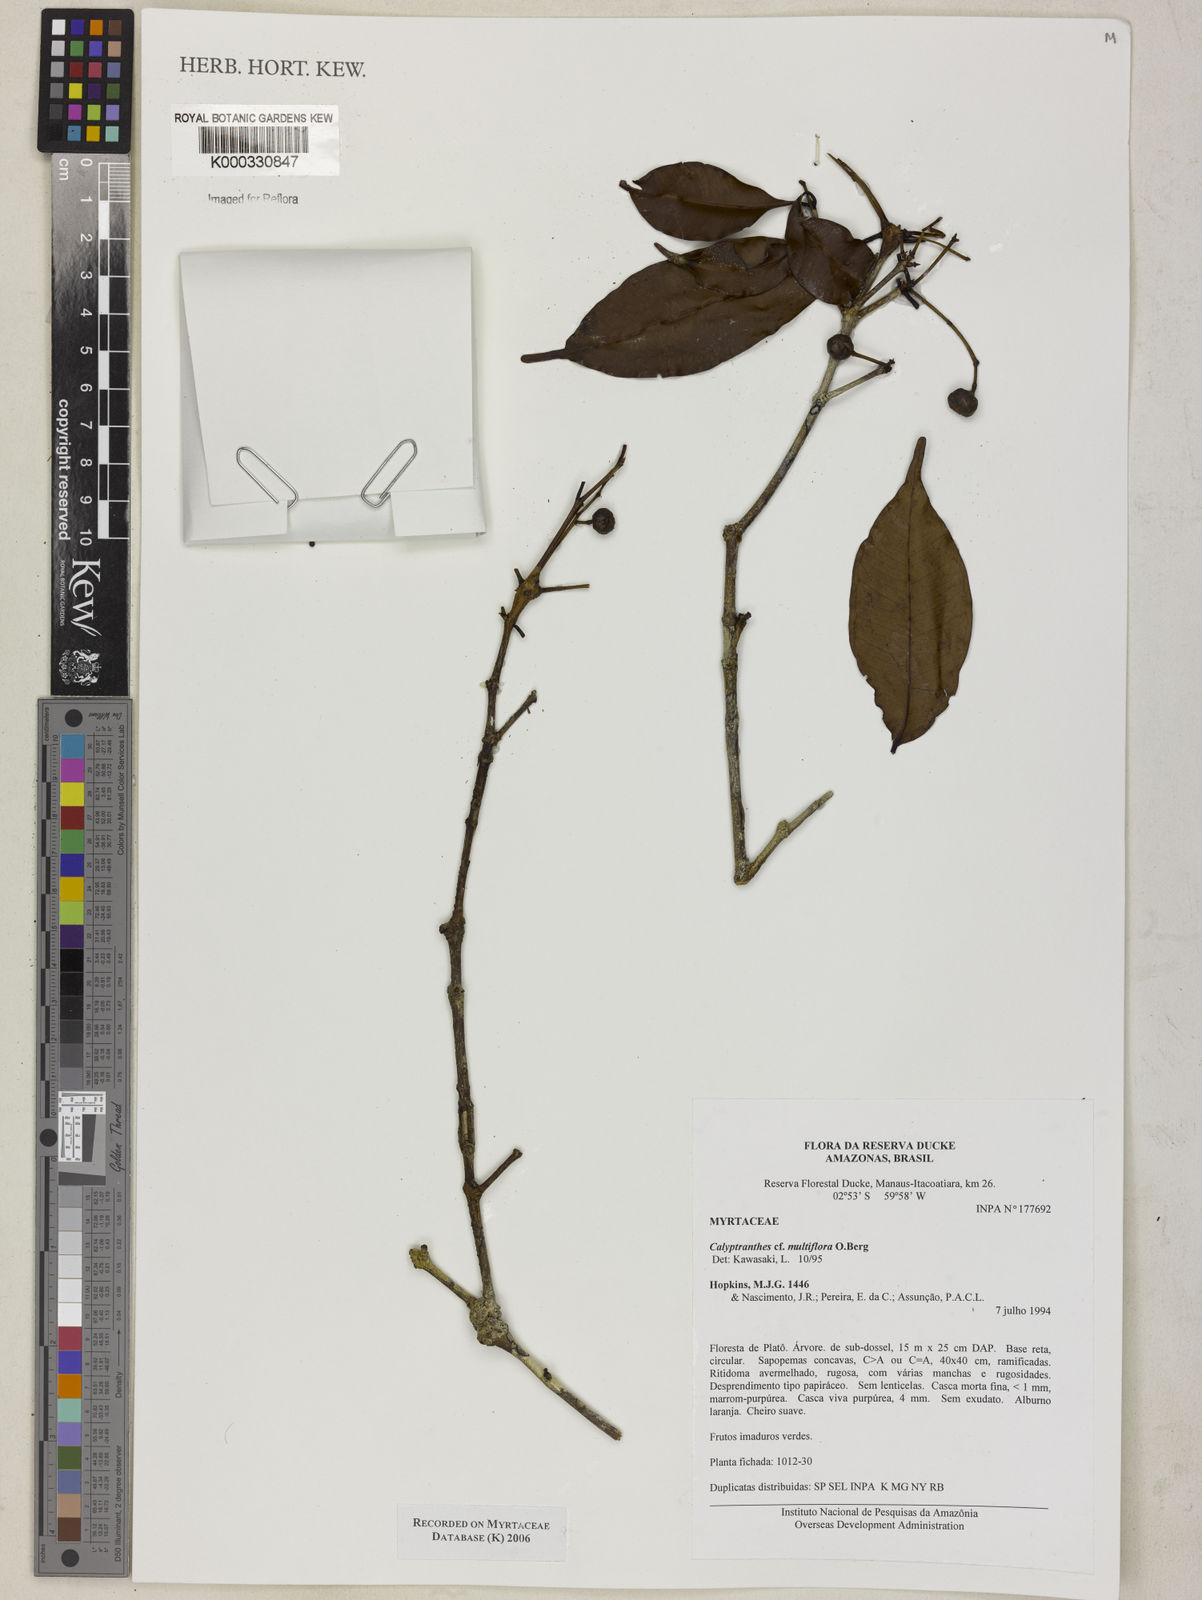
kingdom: Plantae
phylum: Tracheophyta
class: Magnoliopsida
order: Myrtales
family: Myrtaceae
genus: Myrcia
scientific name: Myrcia aulomyrcioides
